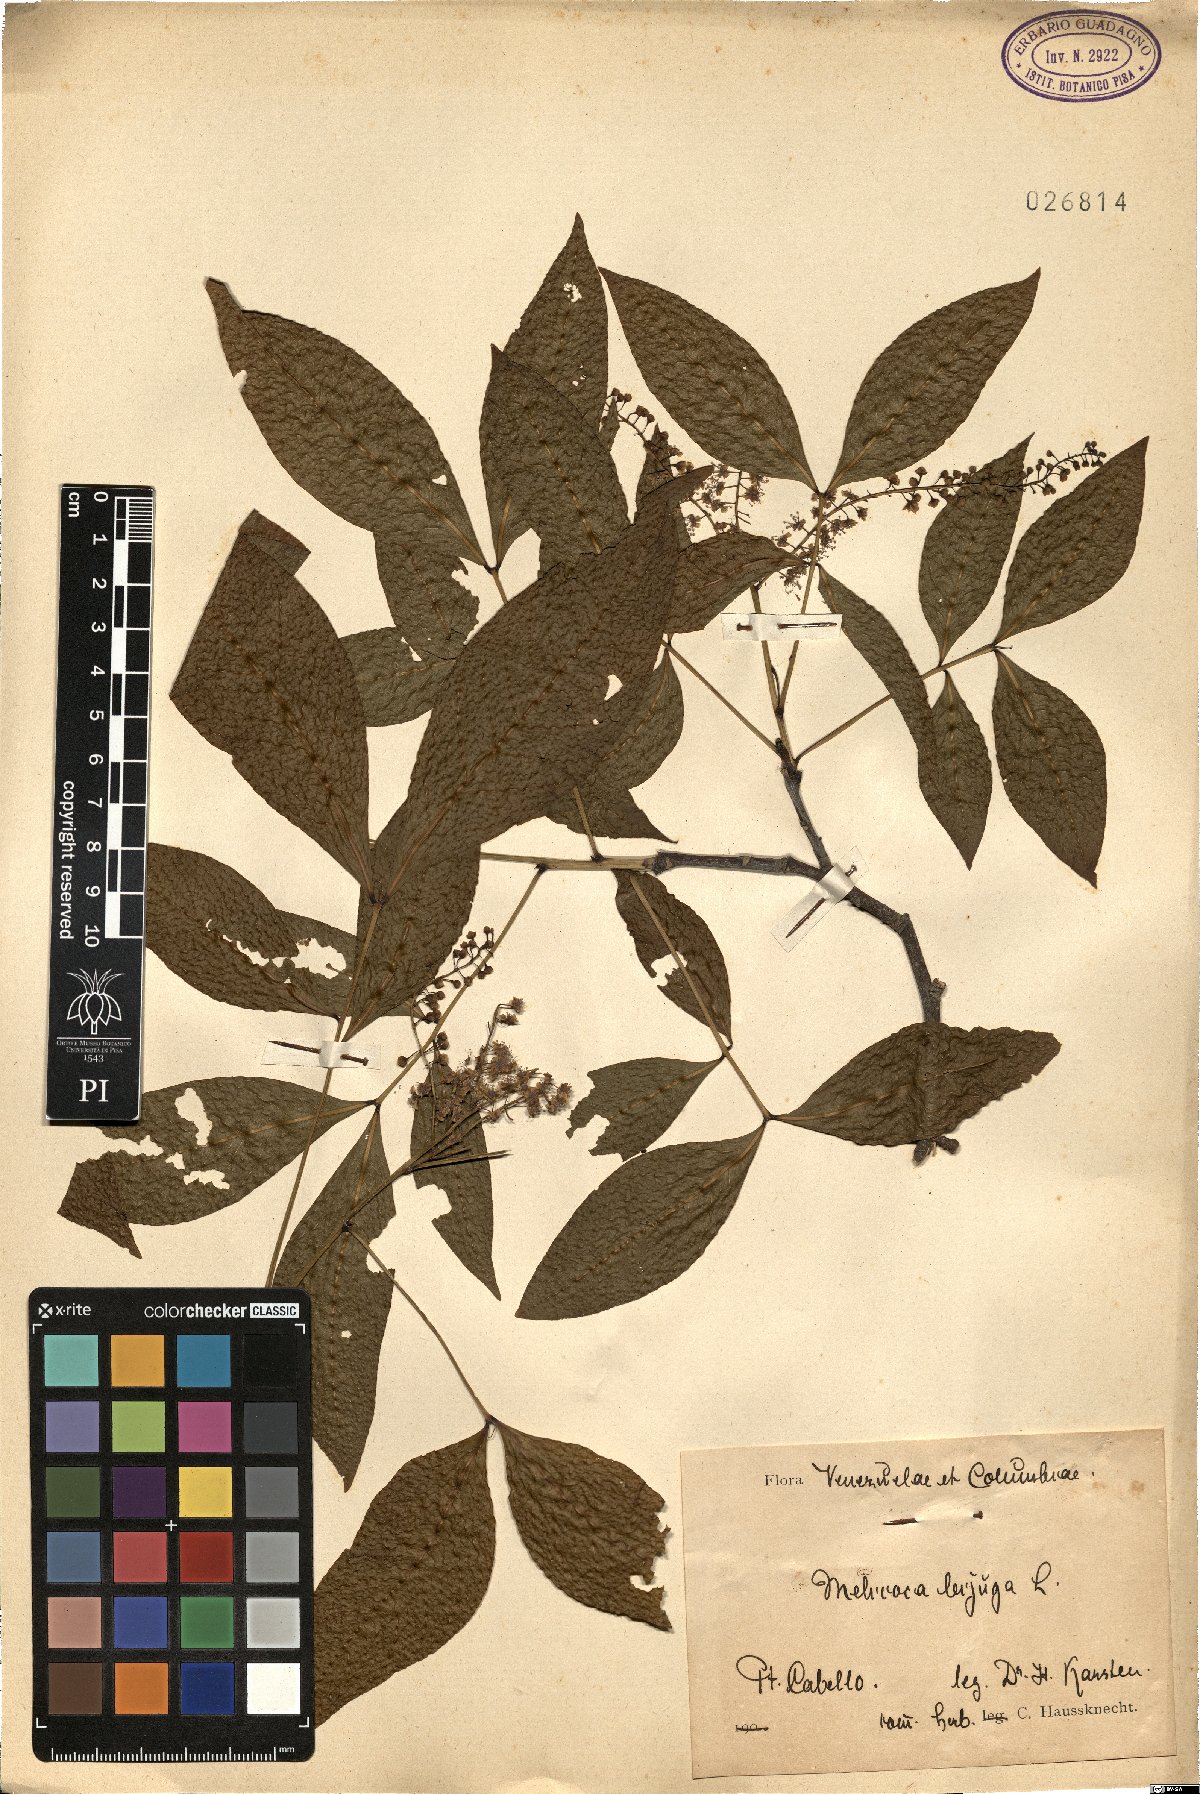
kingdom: Plantae
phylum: Tracheophyta
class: Magnoliopsida
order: Sapindales
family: Sapindaceae
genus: Melicoccus
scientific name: Melicoccus bijugatus
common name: Spanish lime
